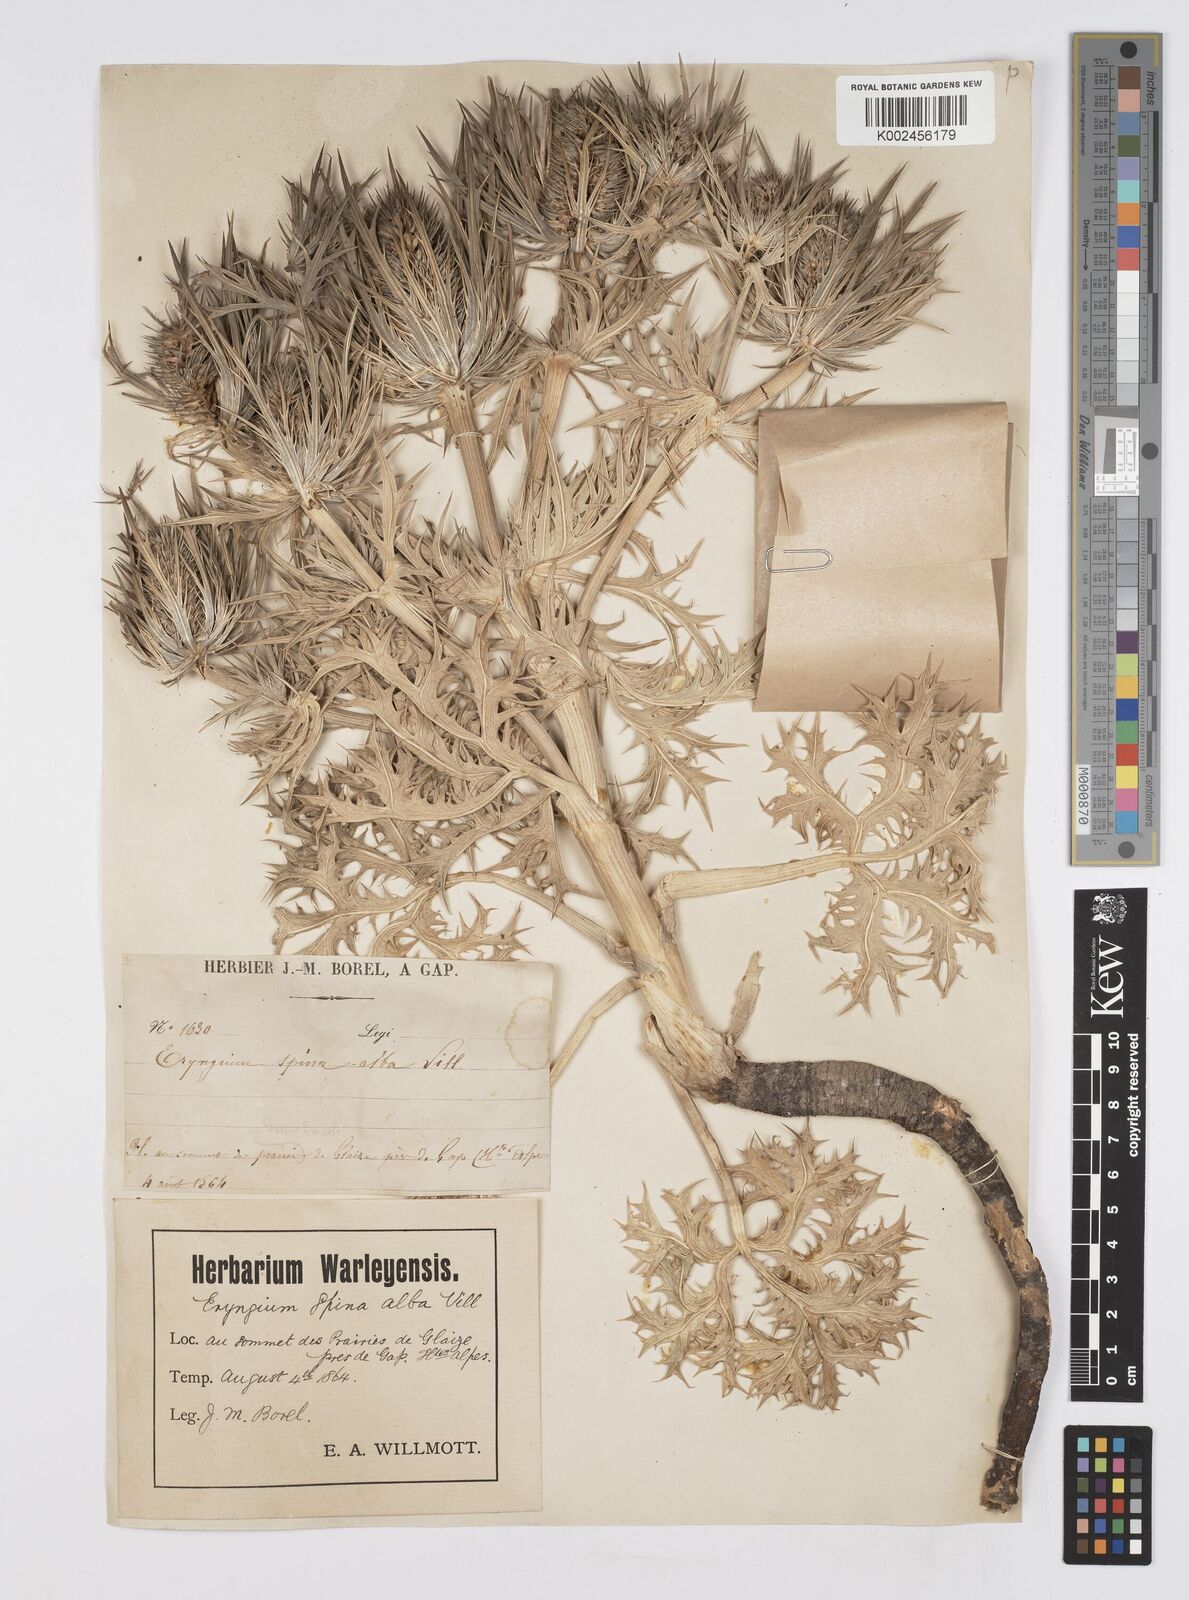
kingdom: Plantae
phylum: Tracheophyta
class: Magnoliopsida
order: Apiales
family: Apiaceae
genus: Eryngium
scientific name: Eryngium spinalba
